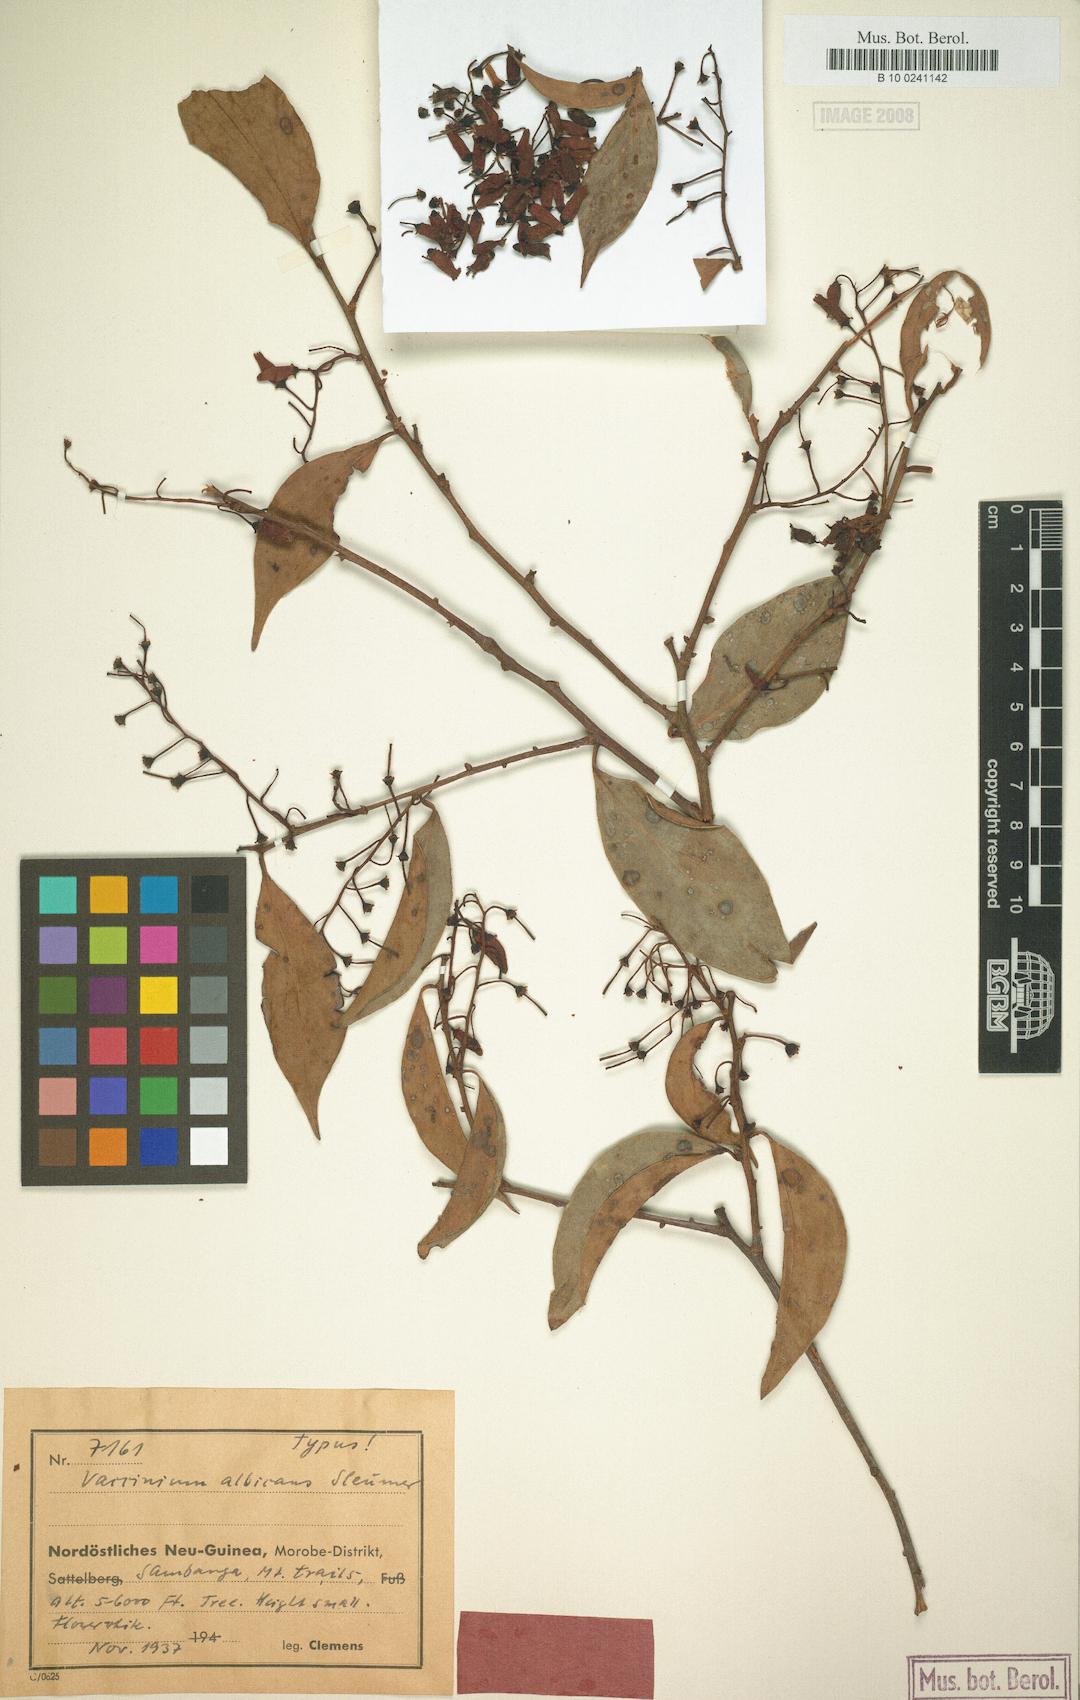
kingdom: Plantae
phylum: Tracheophyta
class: Magnoliopsida
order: Ericales
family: Ericaceae
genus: Vaccinium
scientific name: Vaccinium albicans
